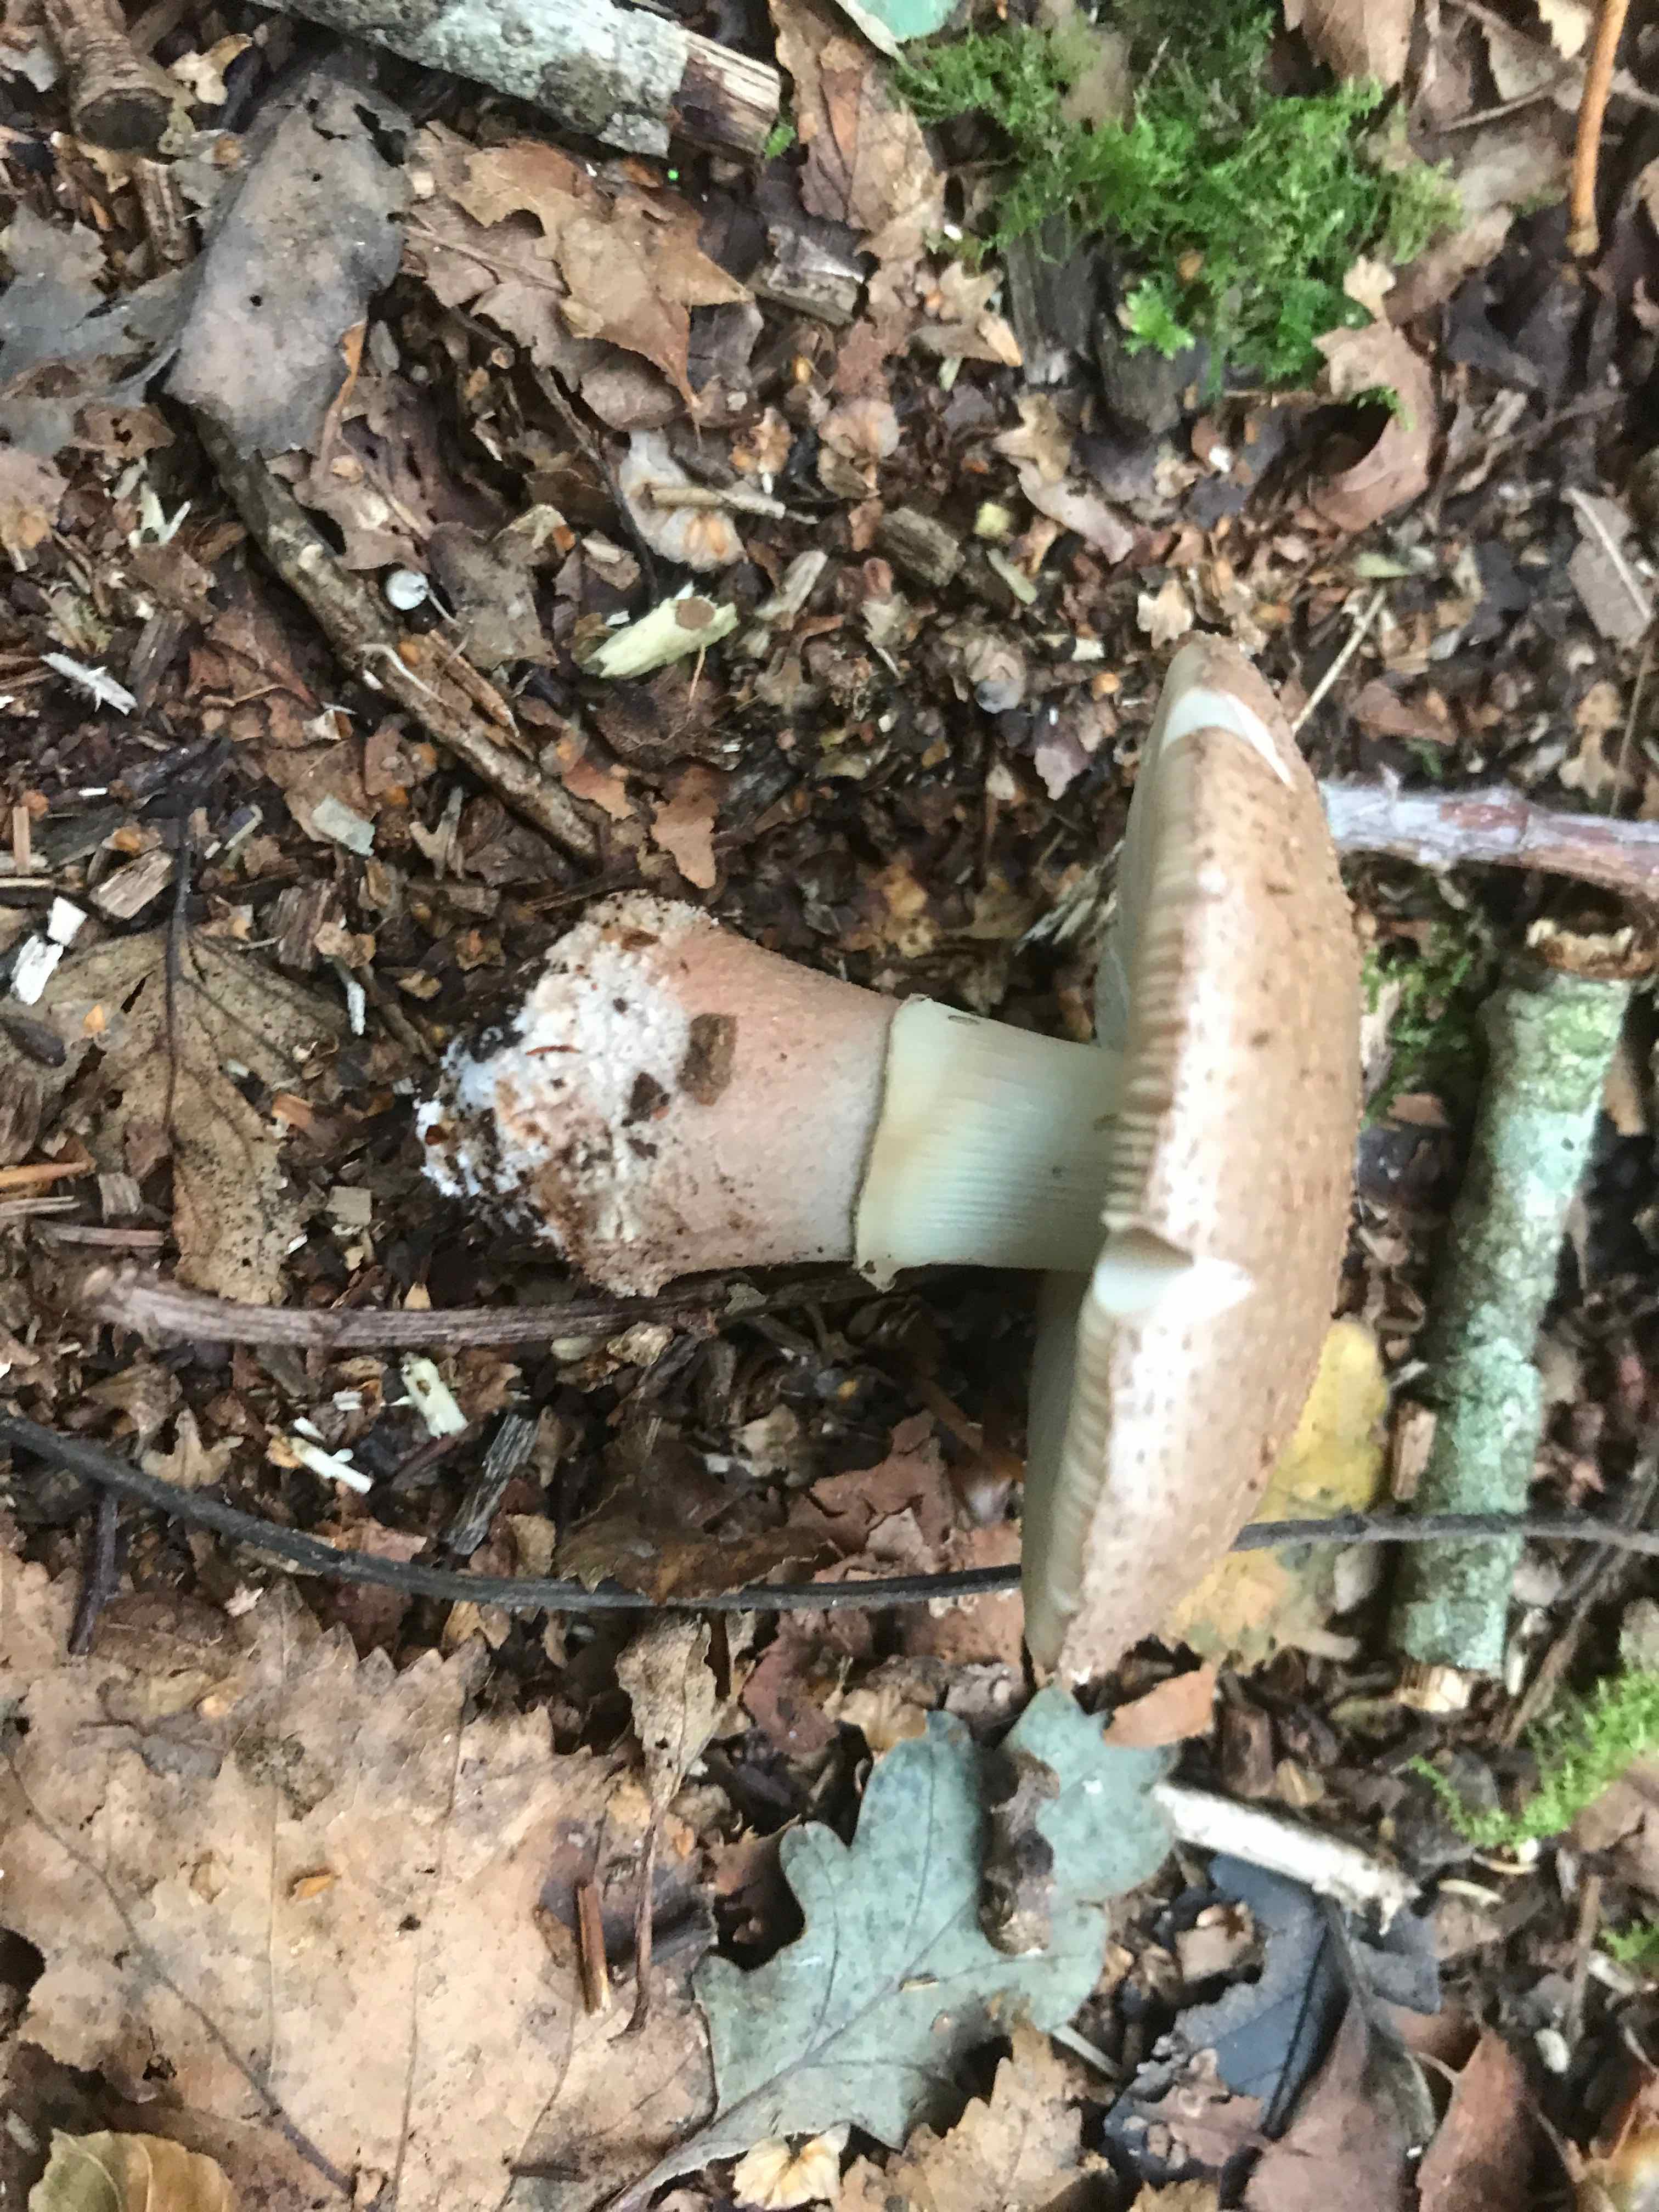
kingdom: Fungi
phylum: Basidiomycota
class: Agaricomycetes
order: Agaricales
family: Amanitaceae
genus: Amanita
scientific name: Amanita rubescens
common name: rødmende fluesvamp
